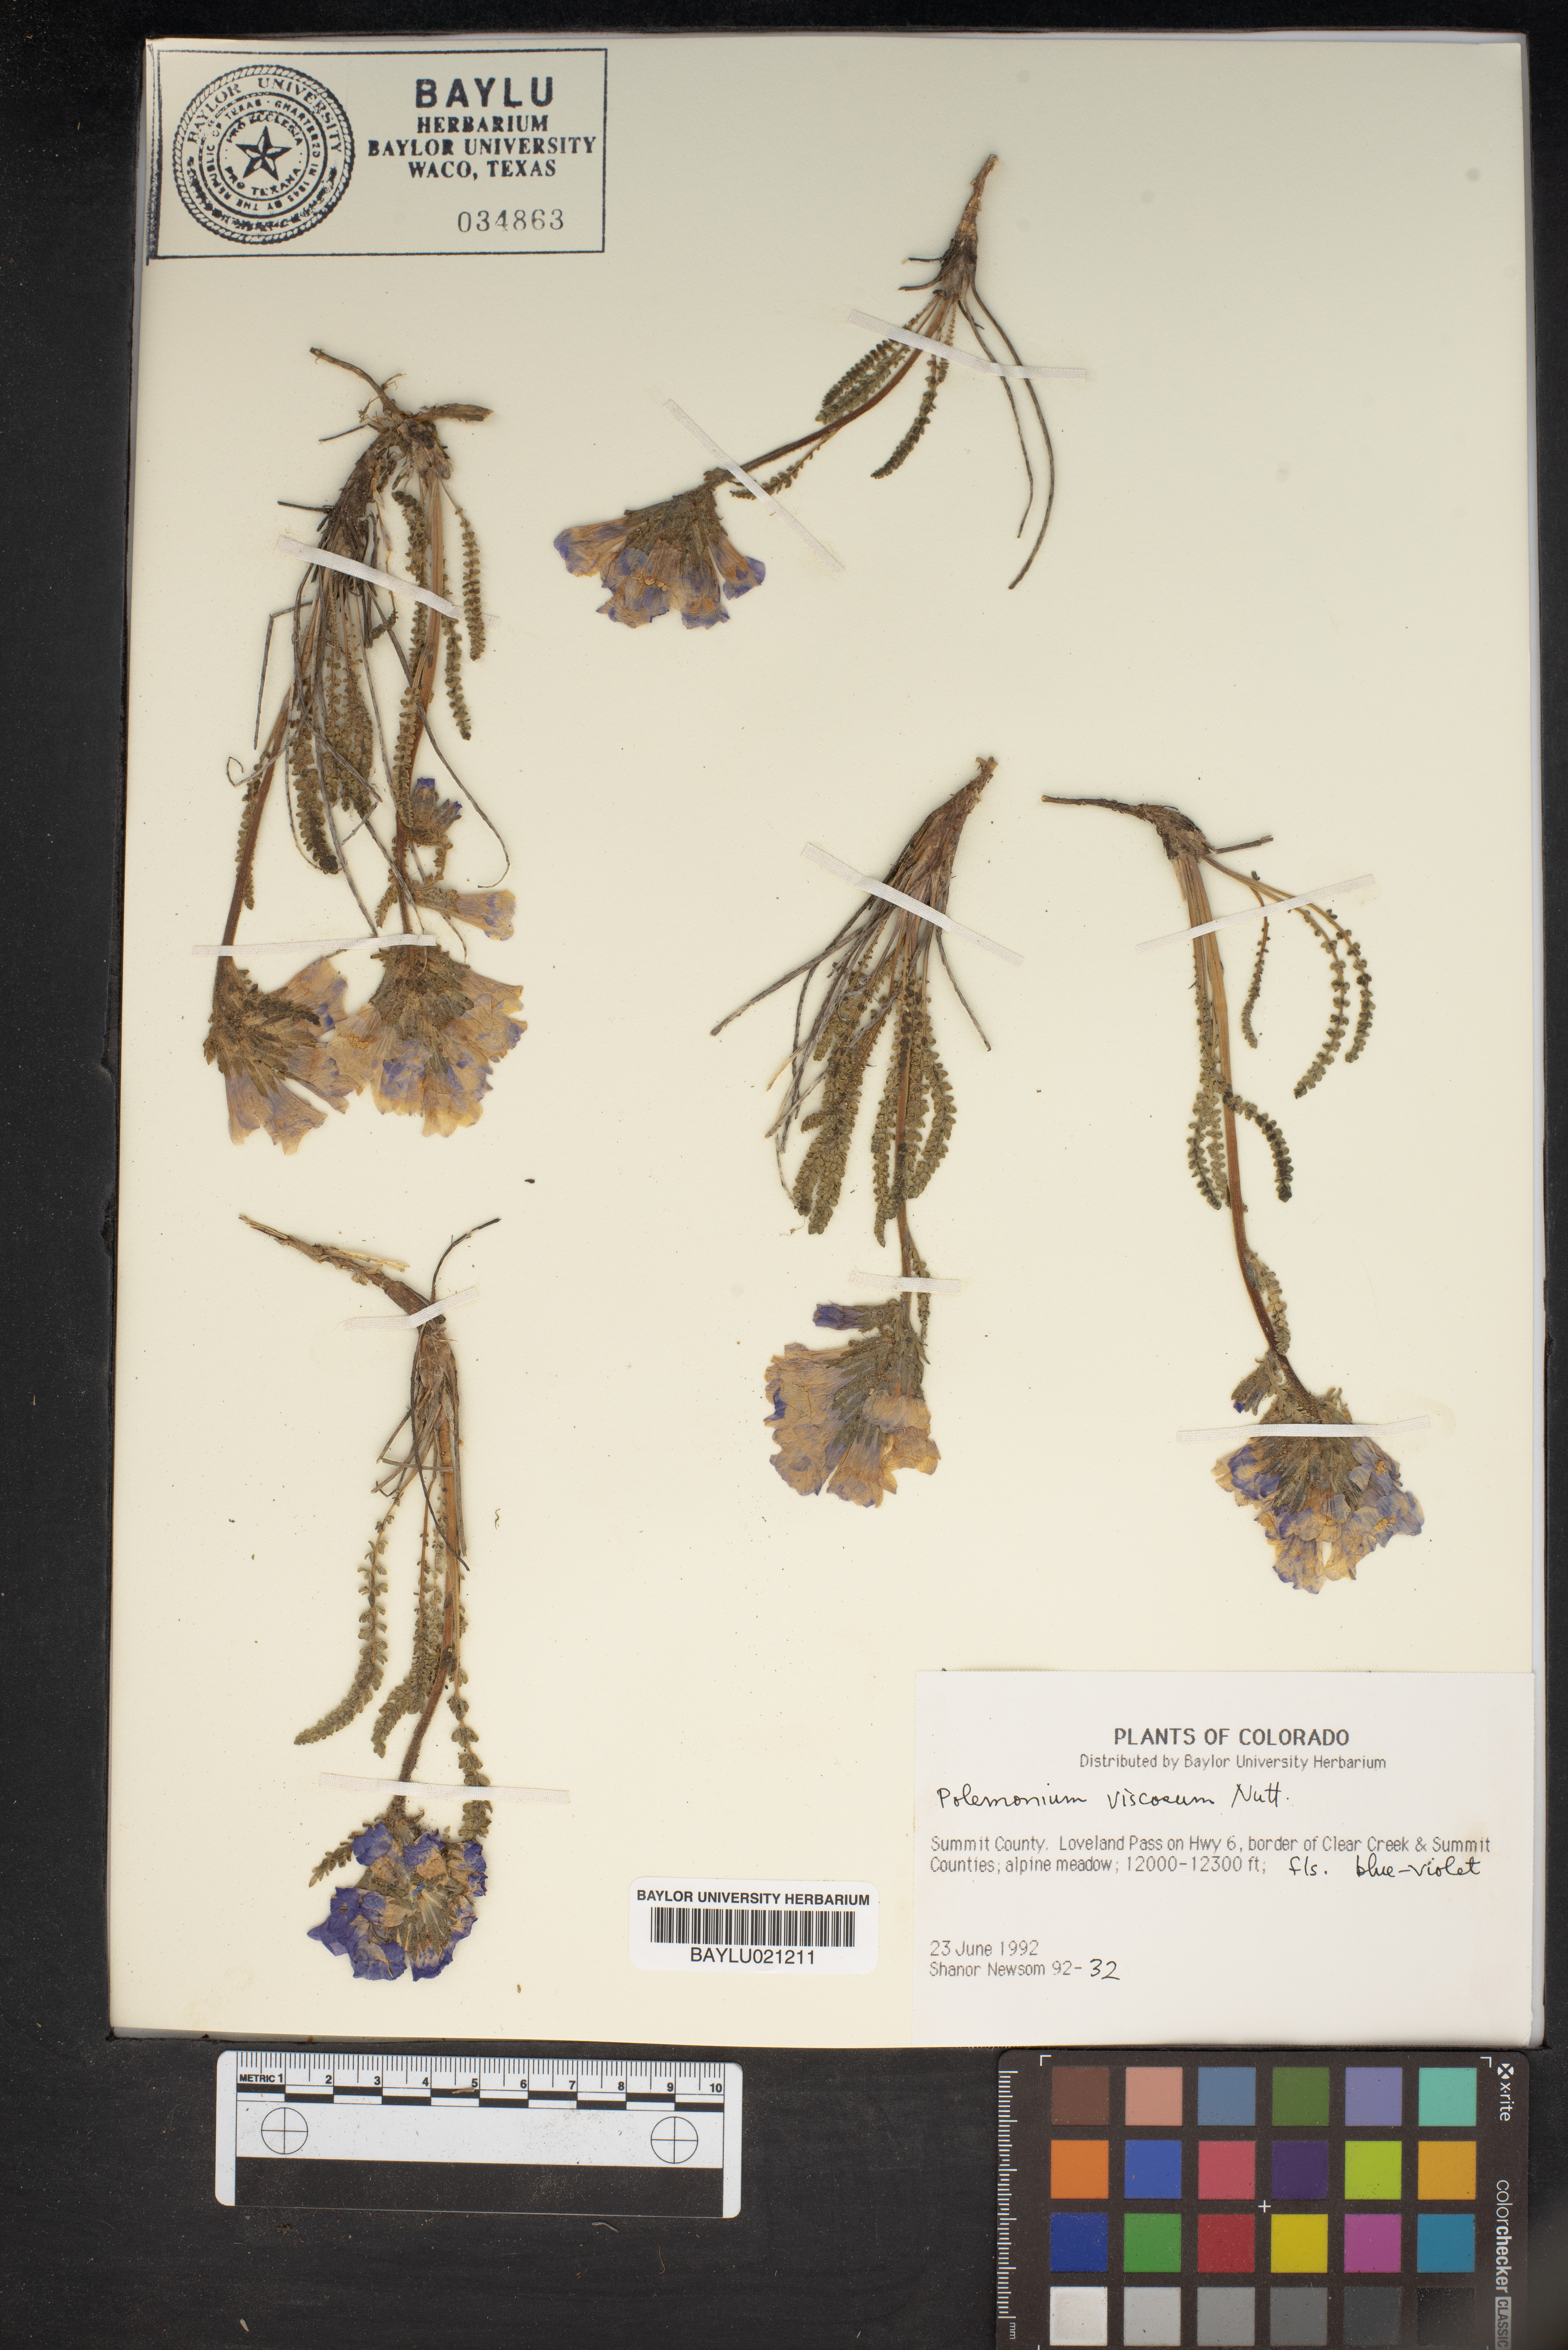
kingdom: Plantae
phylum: Tracheophyta
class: Magnoliopsida
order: Ericales
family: Polemoniaceae
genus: Polemonium
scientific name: Polemonium viscosum
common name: Skunk jacob's-ladder
